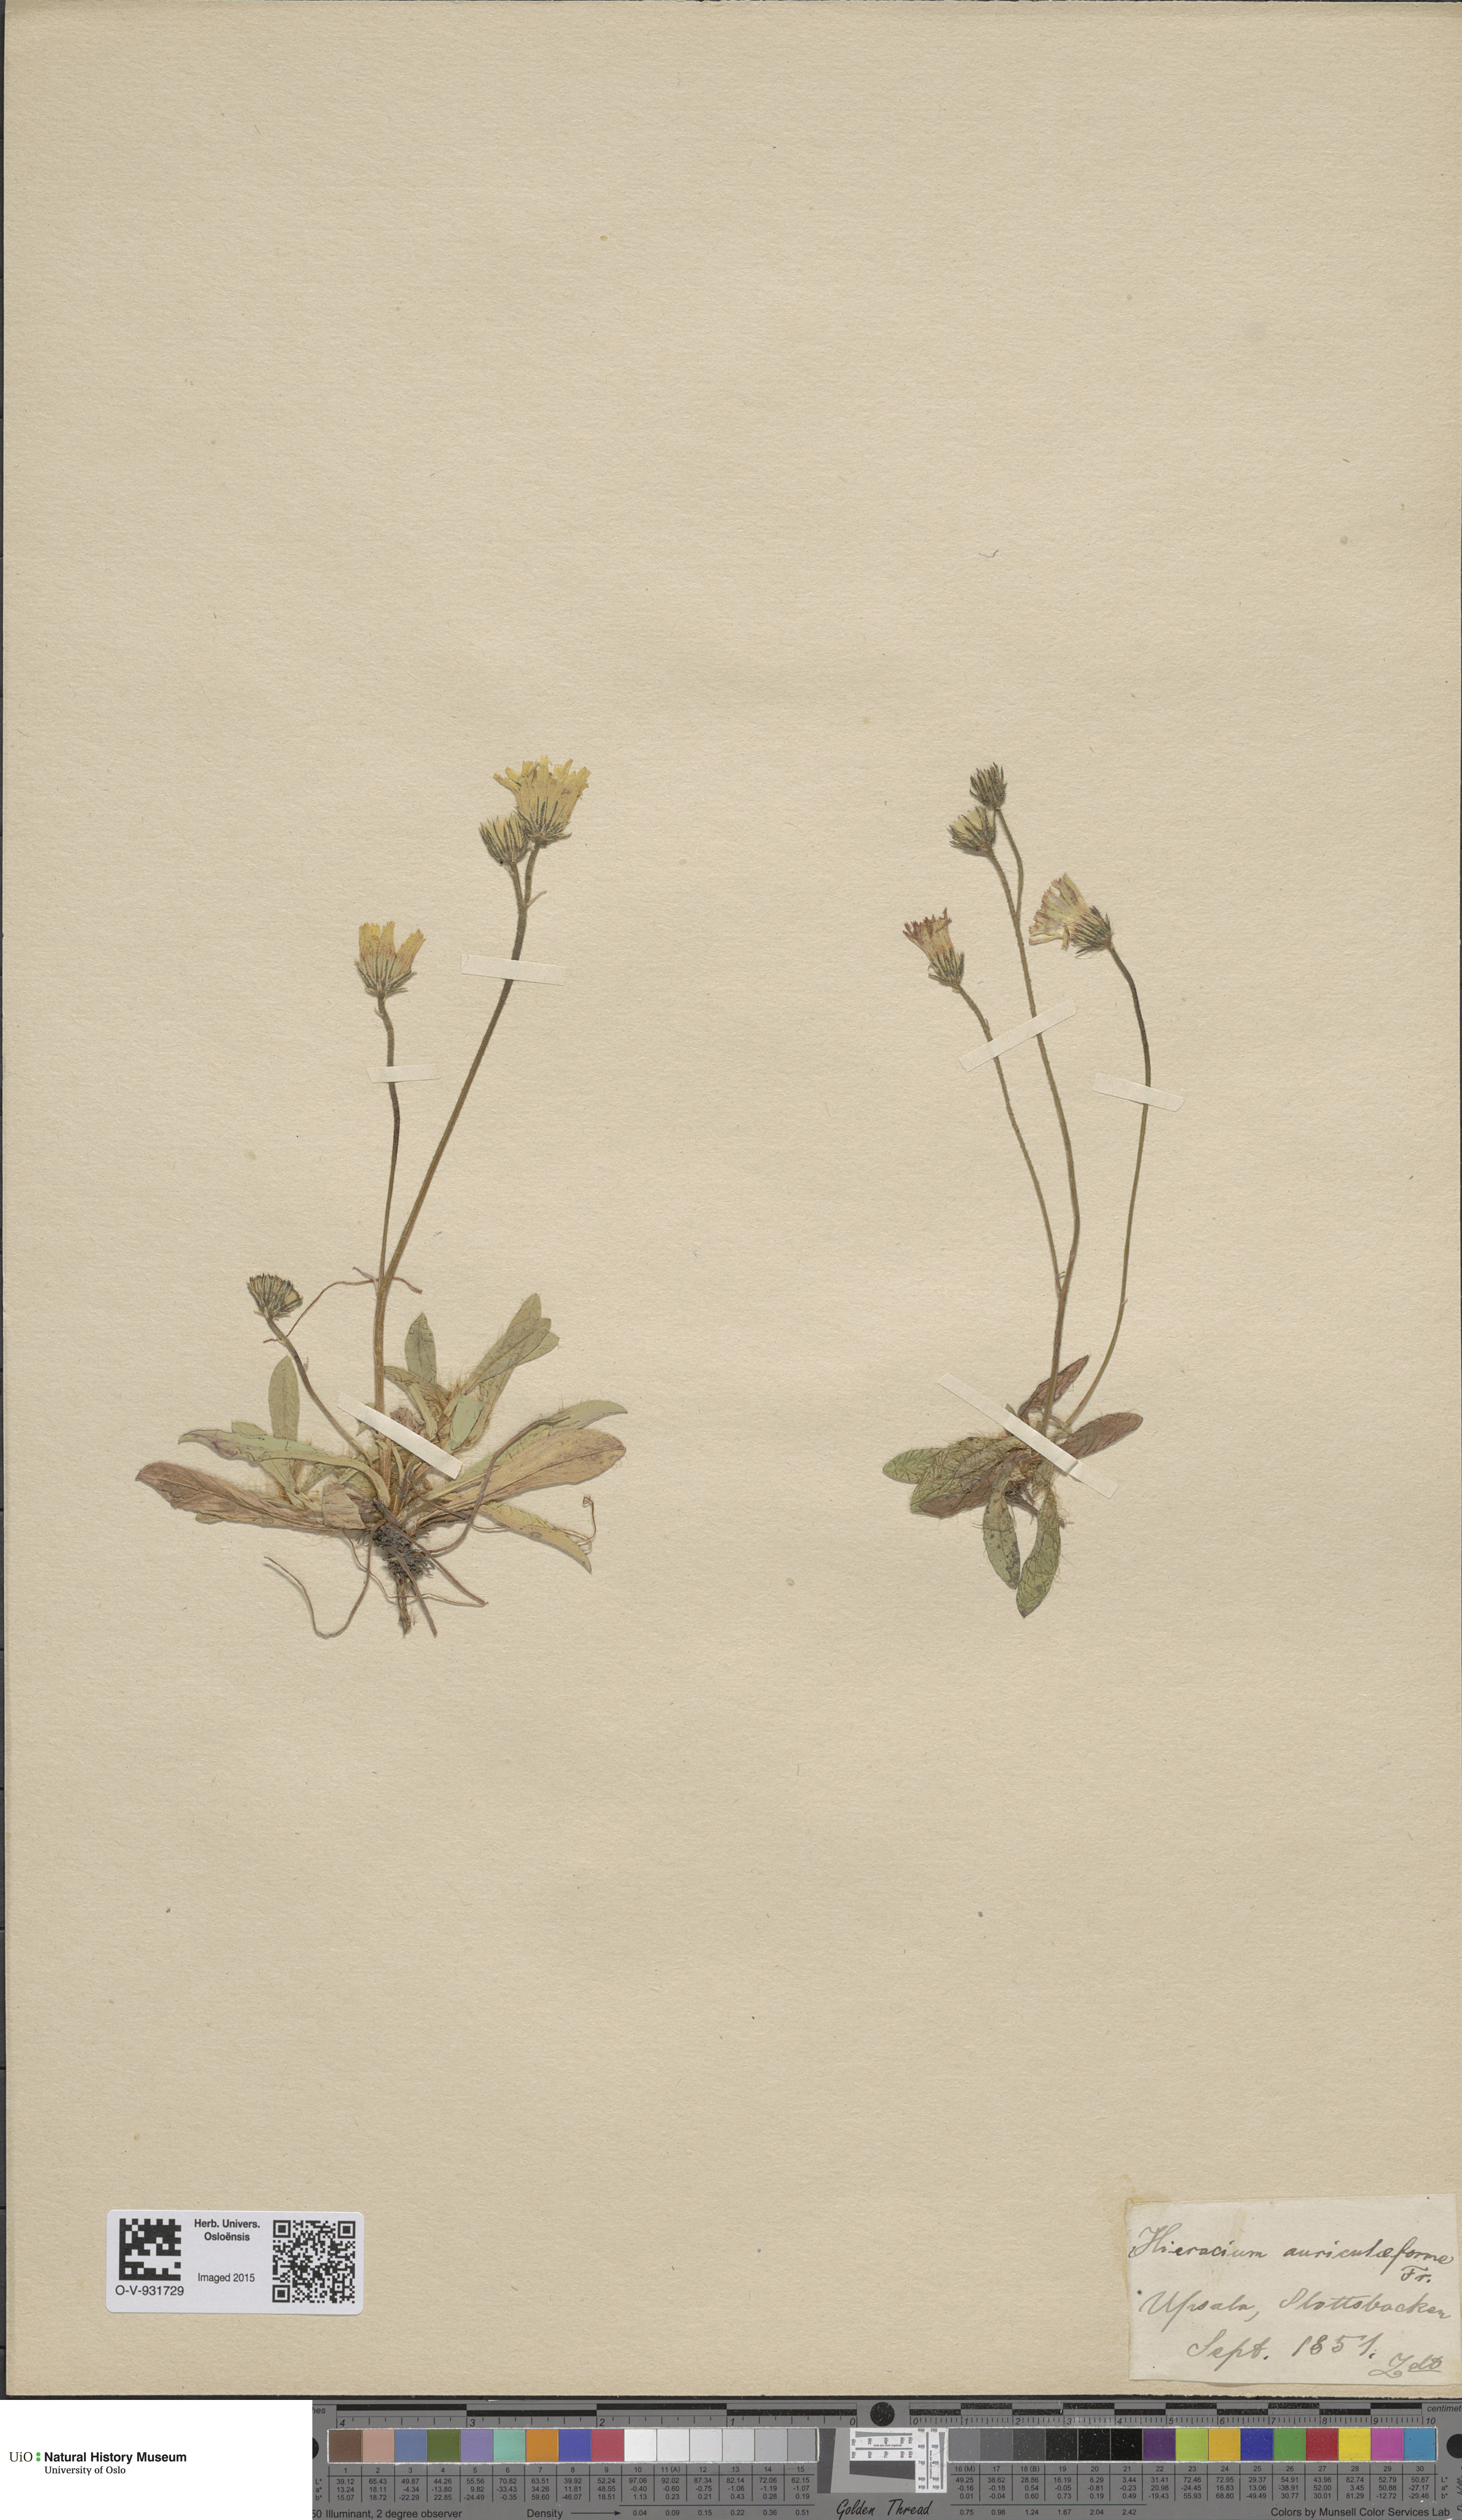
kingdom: Plantae
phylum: Tracheophyta
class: Magnoliopsida
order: Asterales
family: Asteraceae
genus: Pilosella
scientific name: Pilosella auriculiformis
